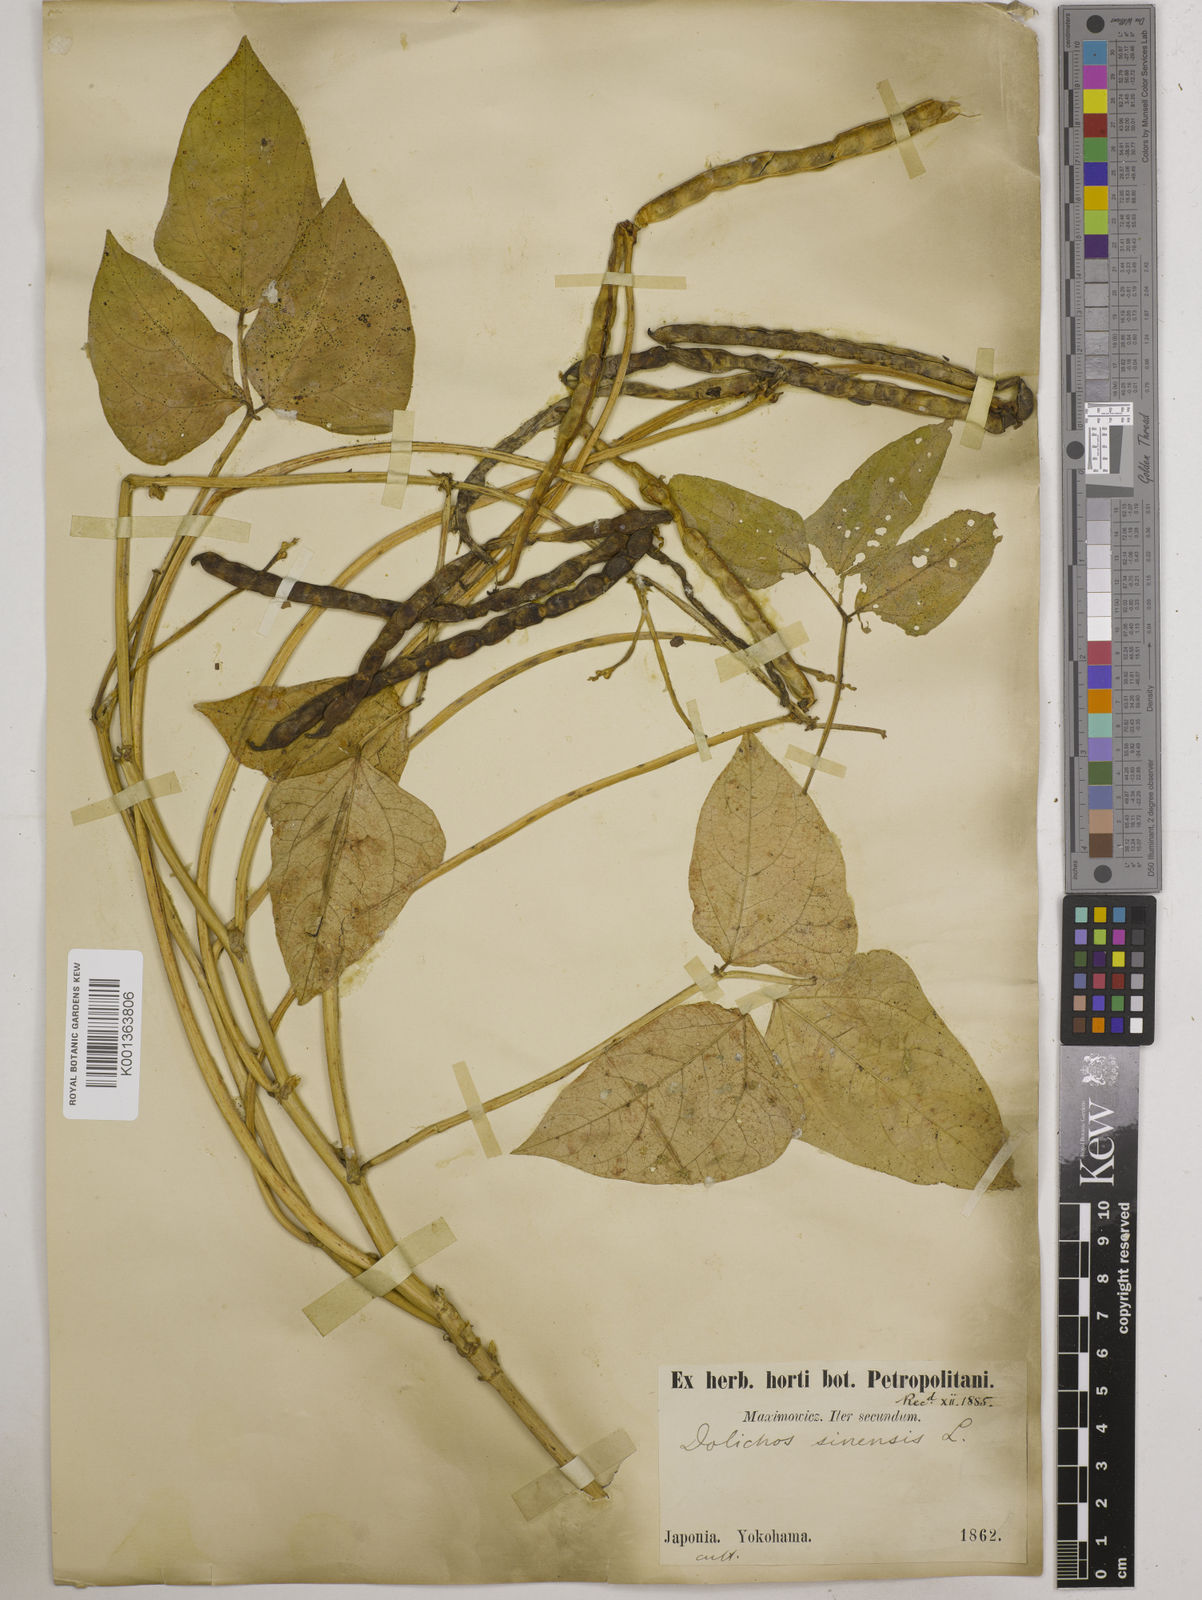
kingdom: Plantae
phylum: Tracheophyta
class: Magnoliopsida
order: Fabales
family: Fabaceae
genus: Vigna
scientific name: Vigna
